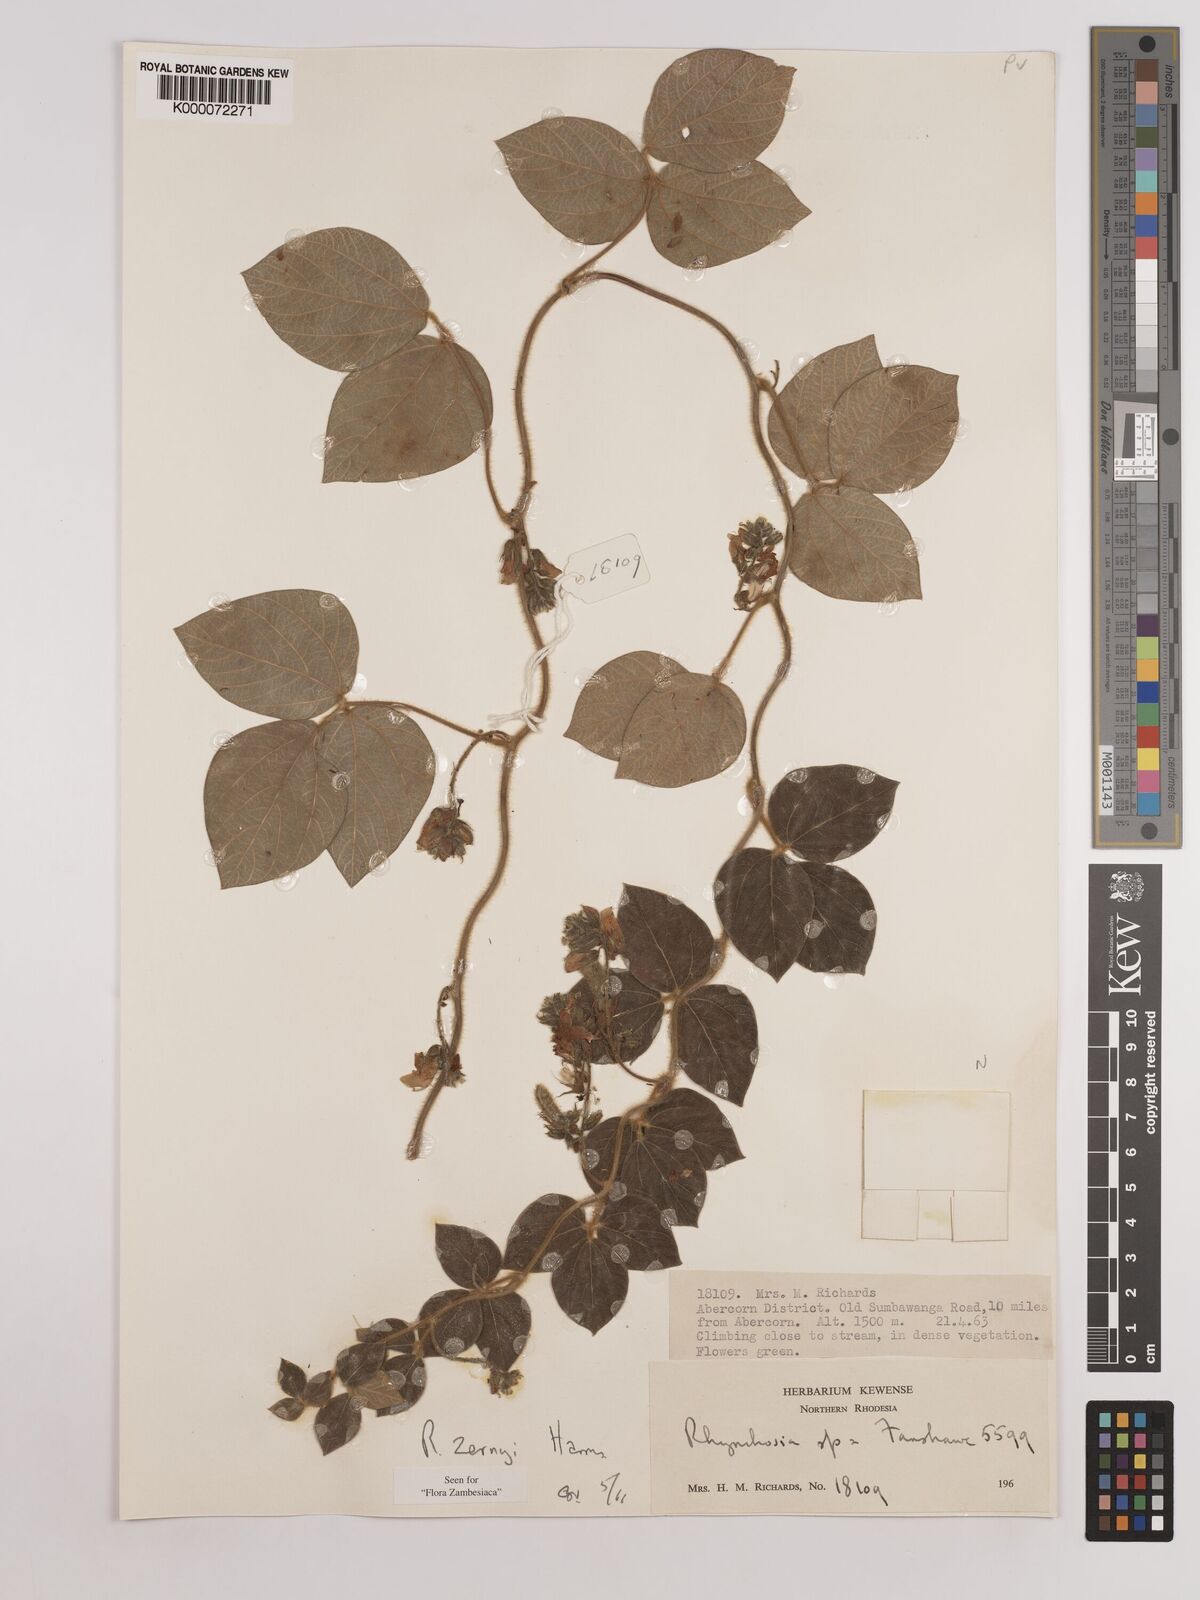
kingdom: Plantae
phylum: Tracheophyta
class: Magnoliopsida
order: Fabales
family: Fabaceae
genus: Rhynchosia
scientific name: Rhynchosia zernyi
